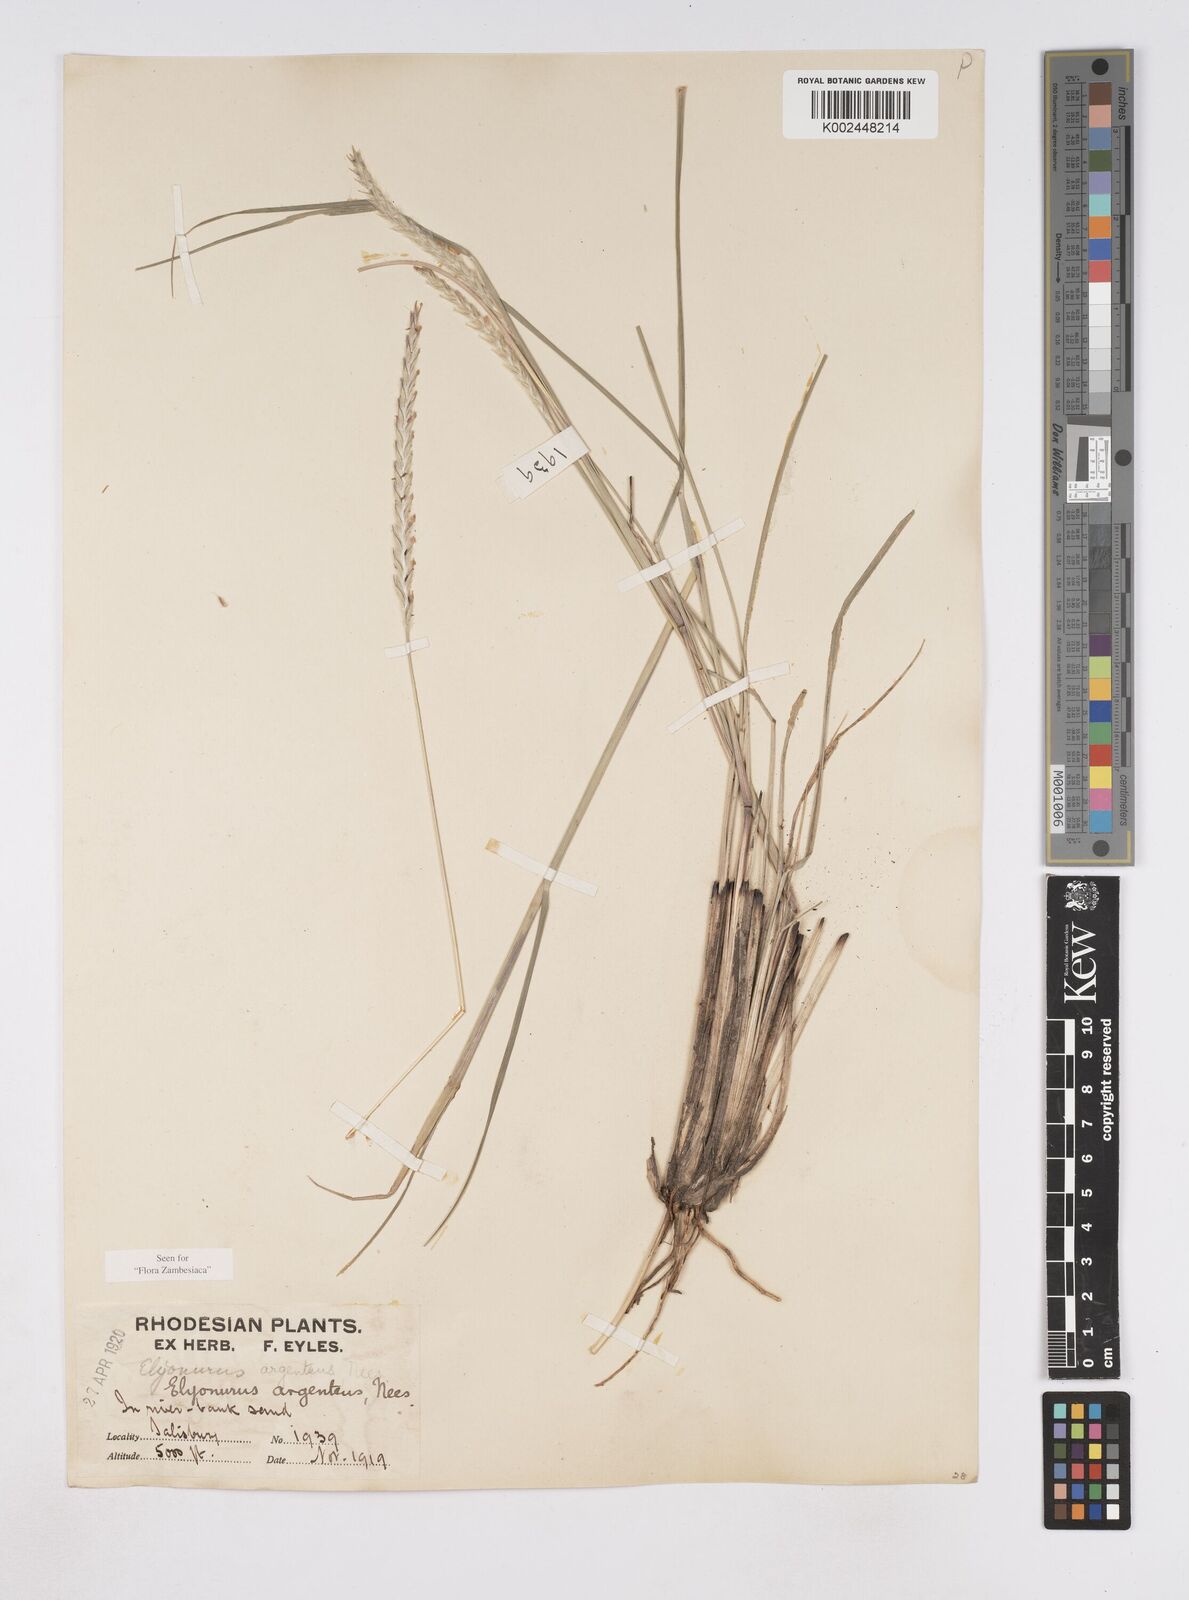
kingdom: Plantae
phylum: Tracheophyta
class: Liliopsida
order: Poales
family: Poaceae
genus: Elionurus
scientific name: Elionurus muticus
